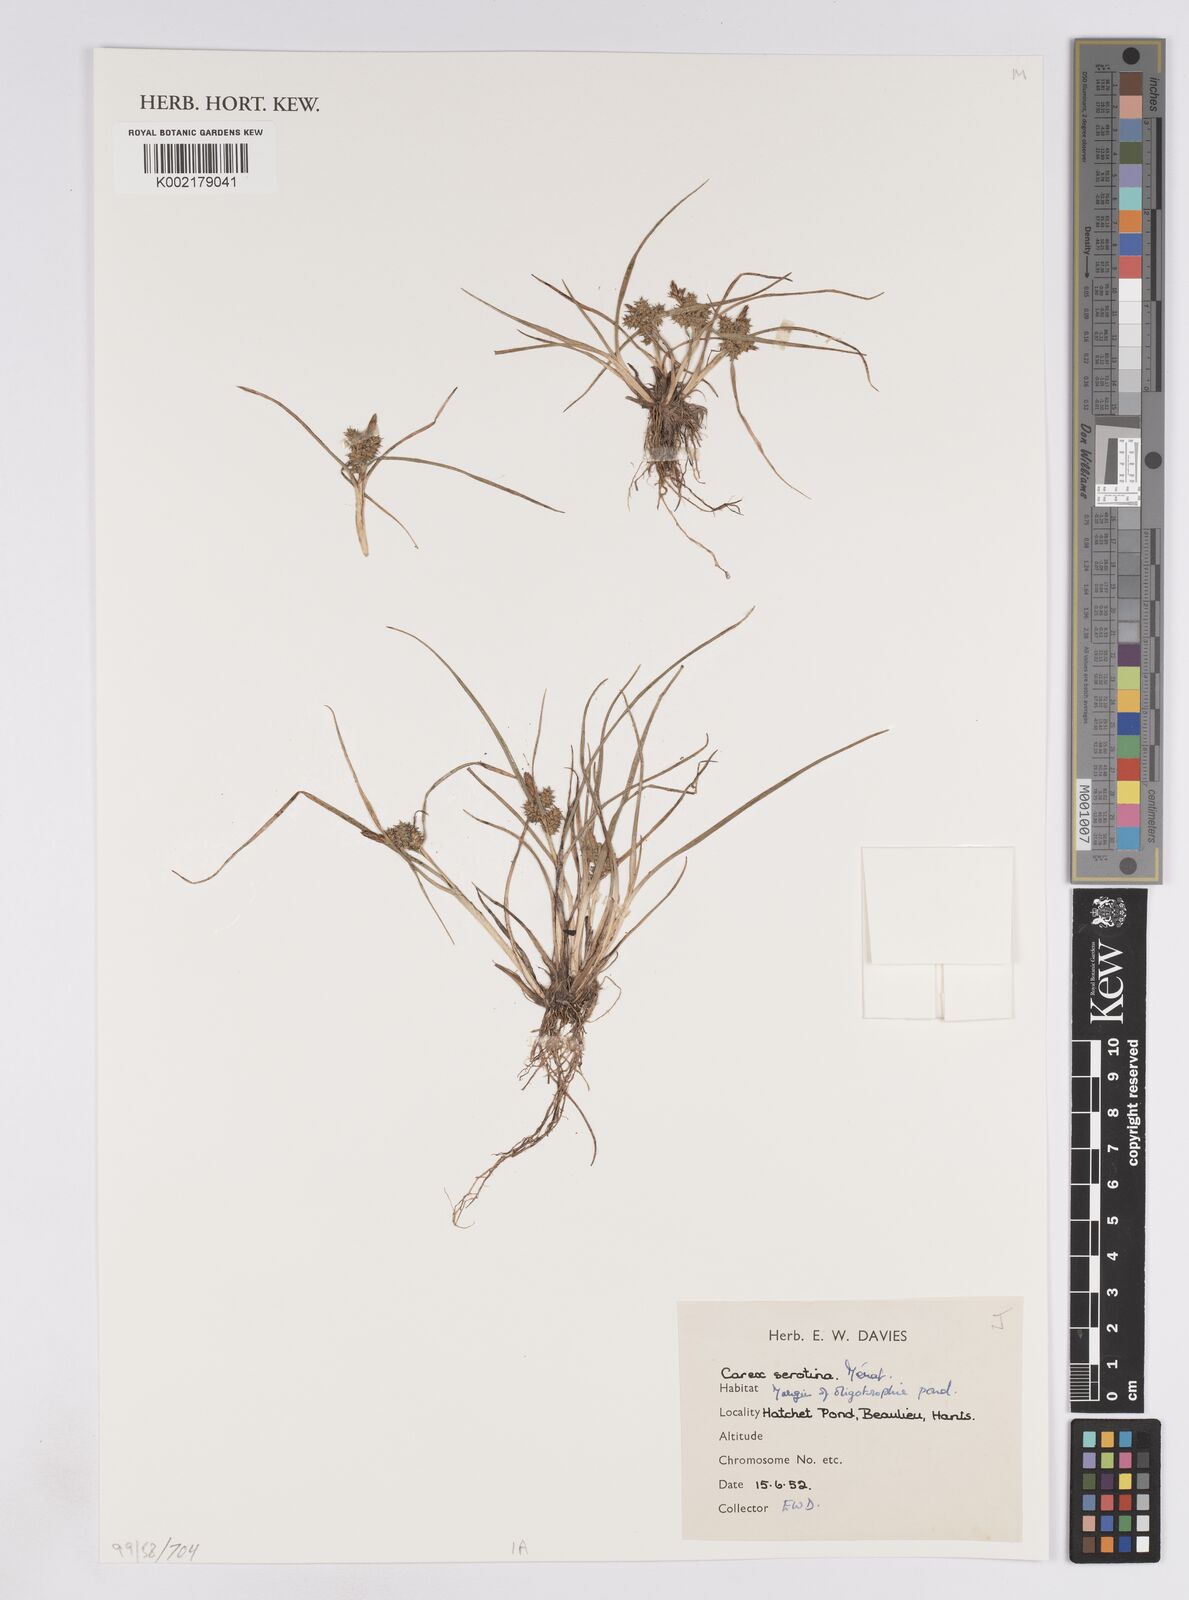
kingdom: Plantae
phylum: Tracheophyta
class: Liliopsida
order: Poales
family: Cyperaceae
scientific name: Cyperaceae
